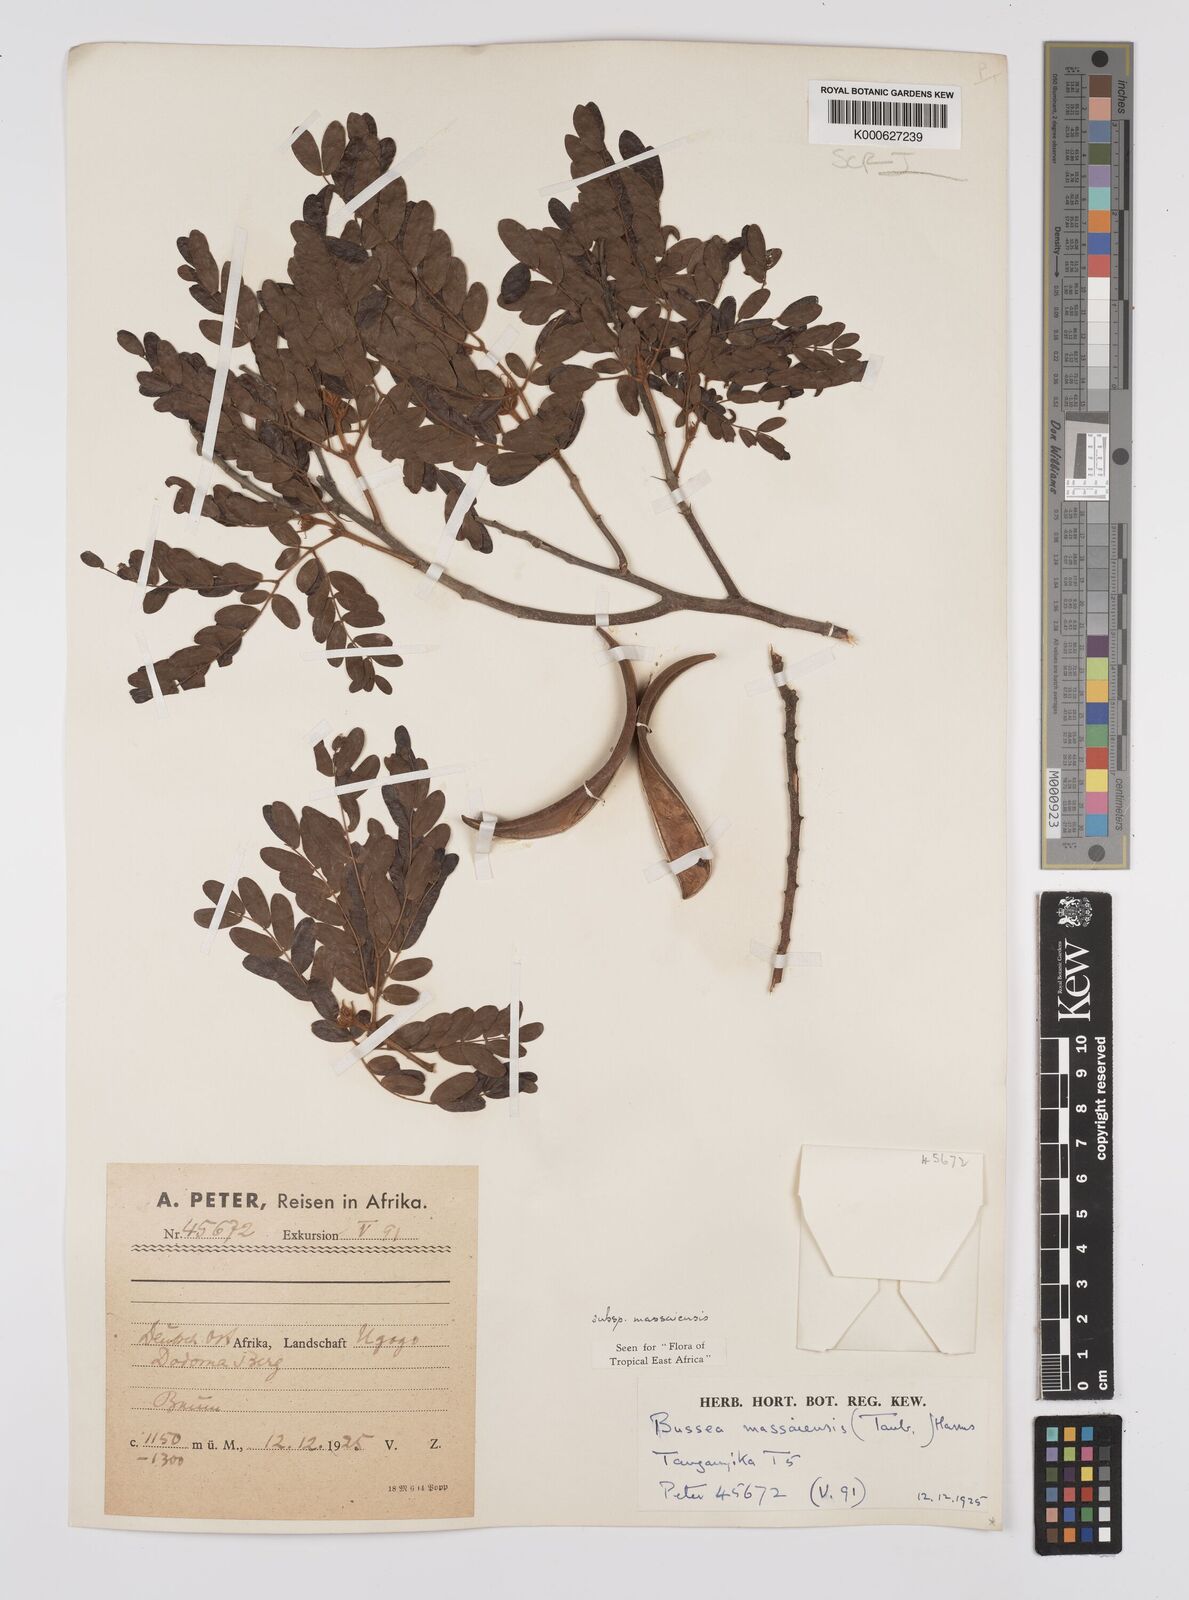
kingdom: Plantae
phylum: Tracheophyta
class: Magnoliopsida
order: Fabales
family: Fabaceae
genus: Bussea
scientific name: Bussea
